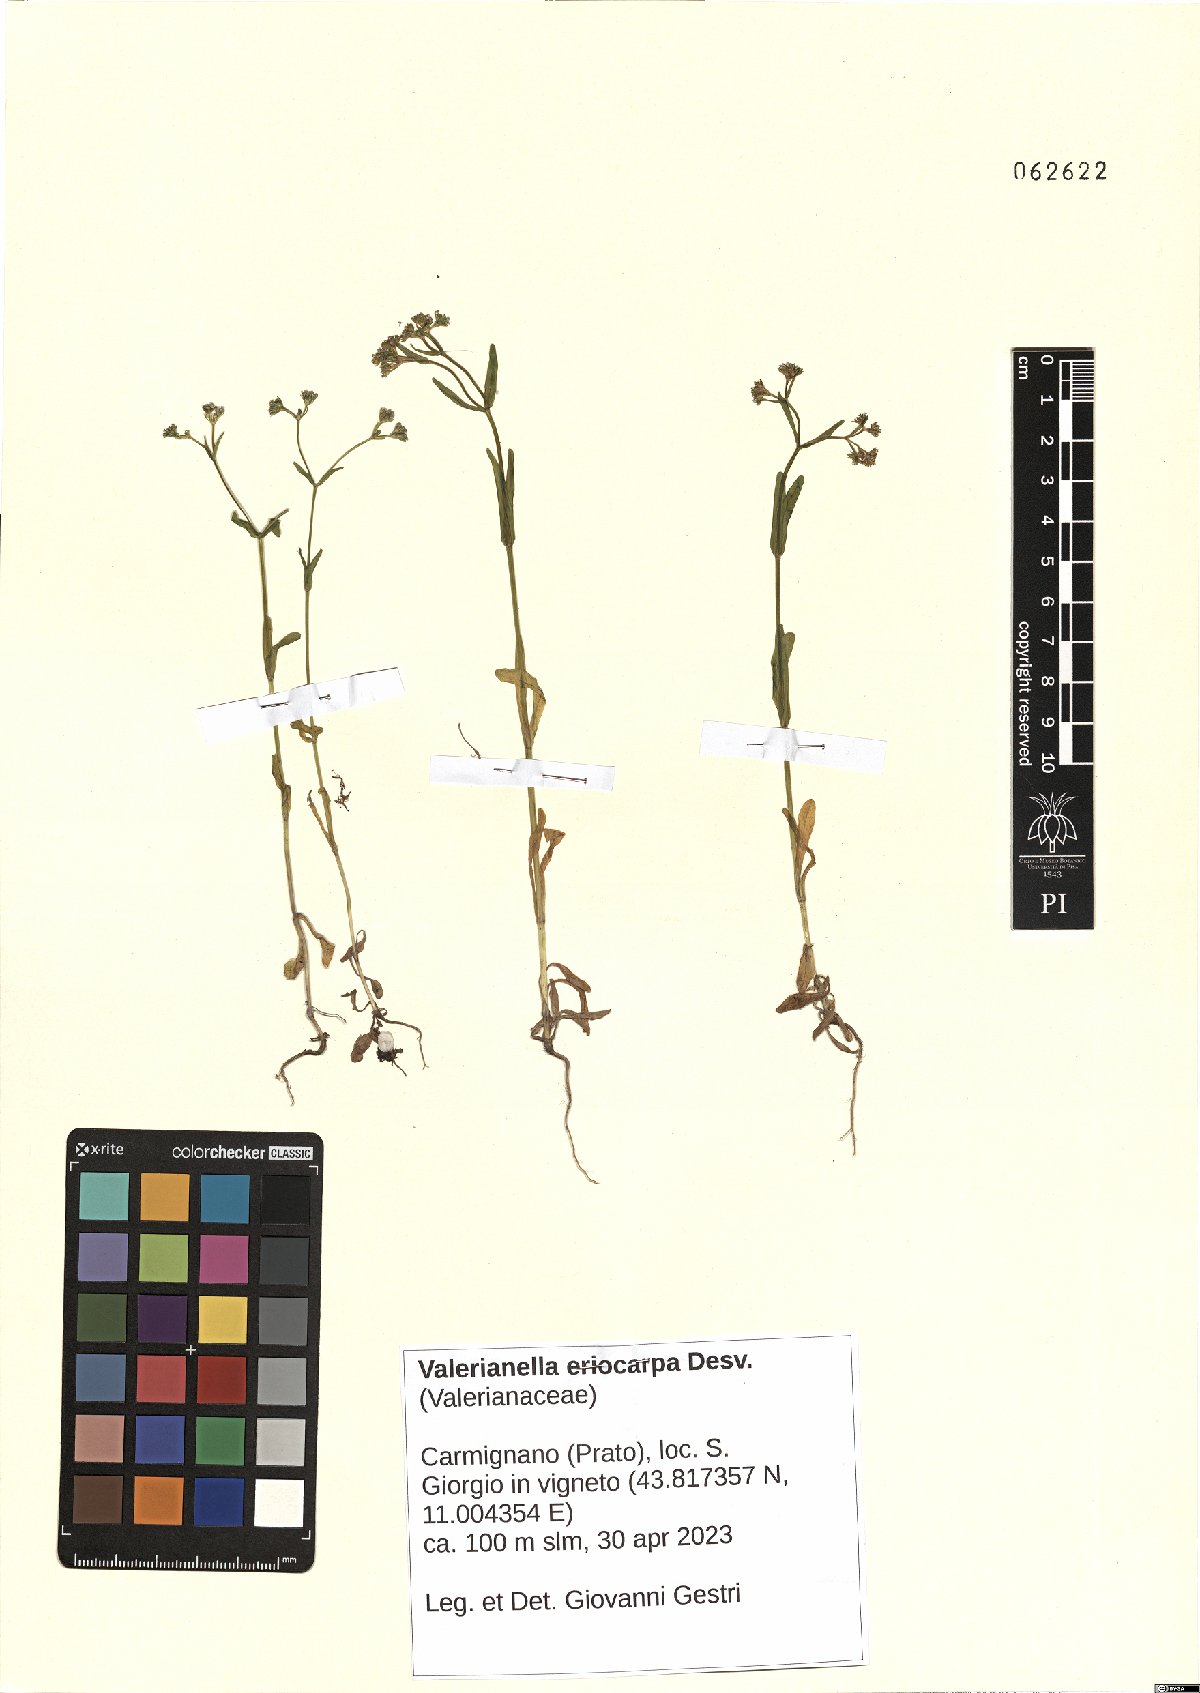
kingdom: Plantae
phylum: Tracheophyta
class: Magnoliopsida
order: Dipsacales
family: Caprifoliaceae
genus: Valerianella
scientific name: Valerianella eriocarpa
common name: Hairy-fruited cornsalad
